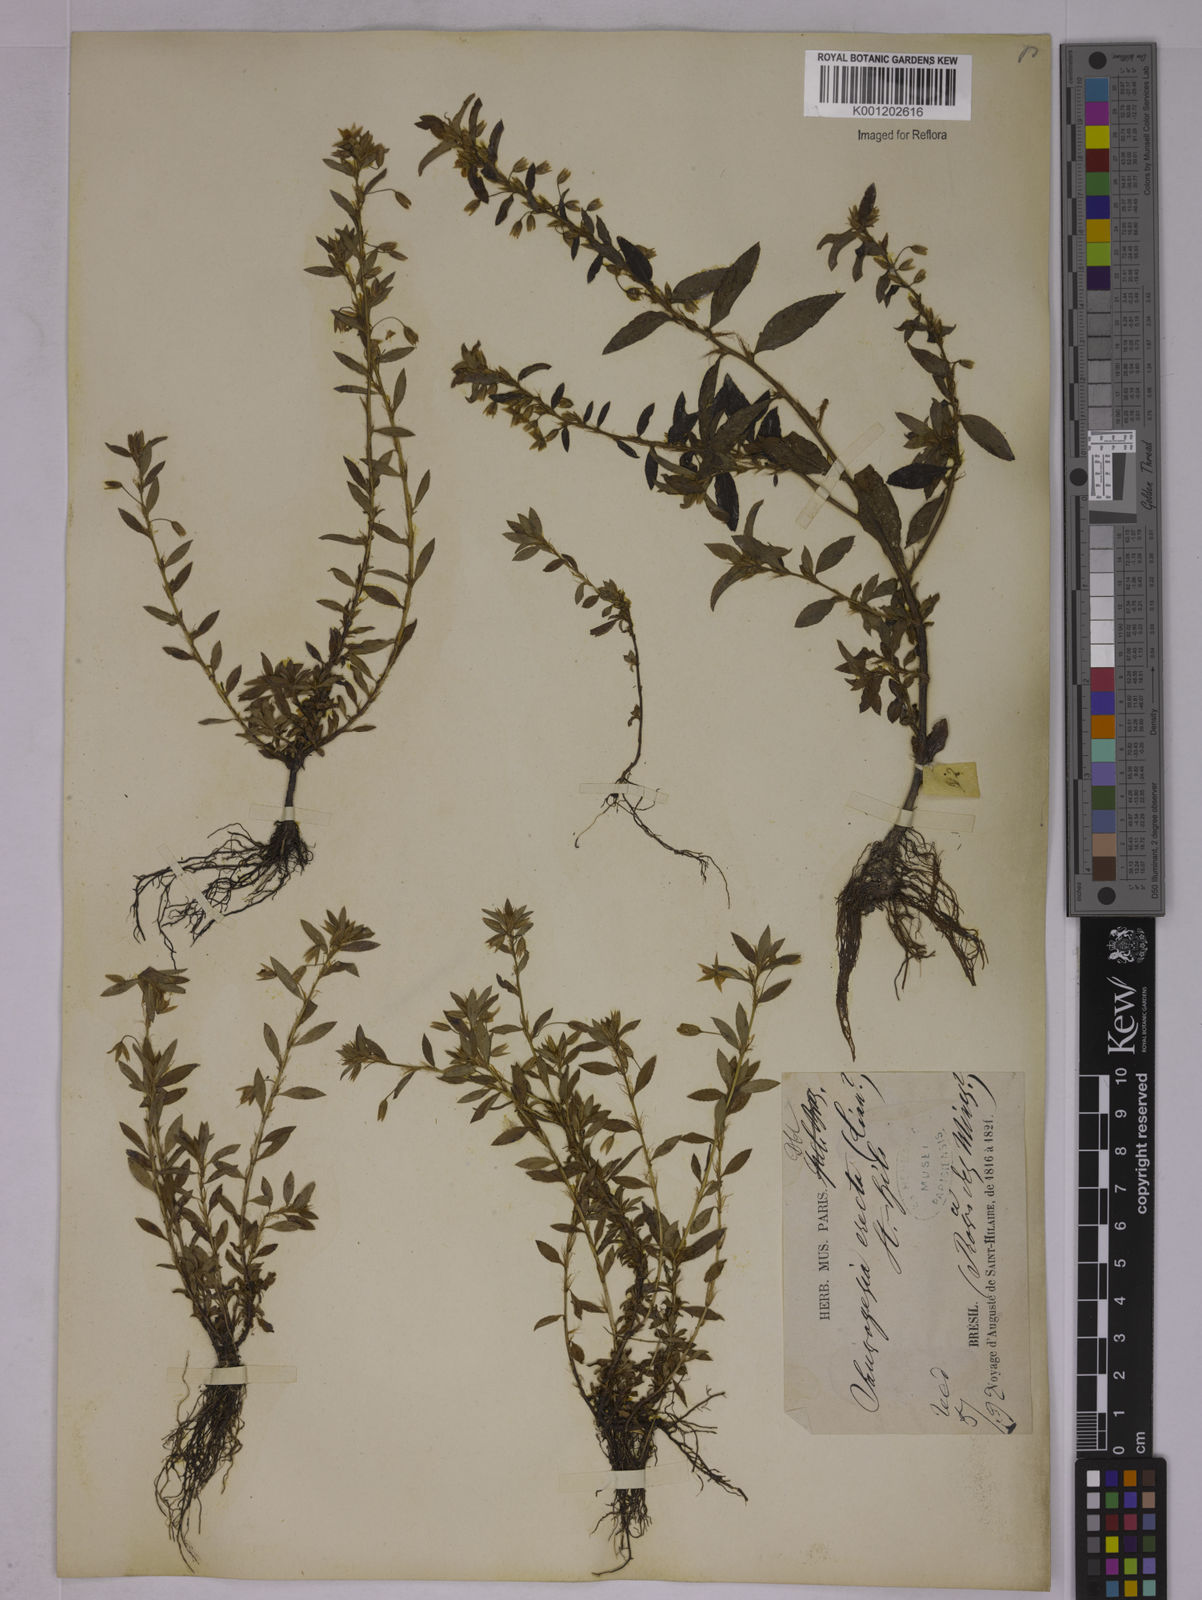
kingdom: Plantae
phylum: Tracheophyta
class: Magnoliopsida
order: Malpighiales
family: Ochnaceae
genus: Sauvagesia
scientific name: Sauvagesia erecta
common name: Creole tea
